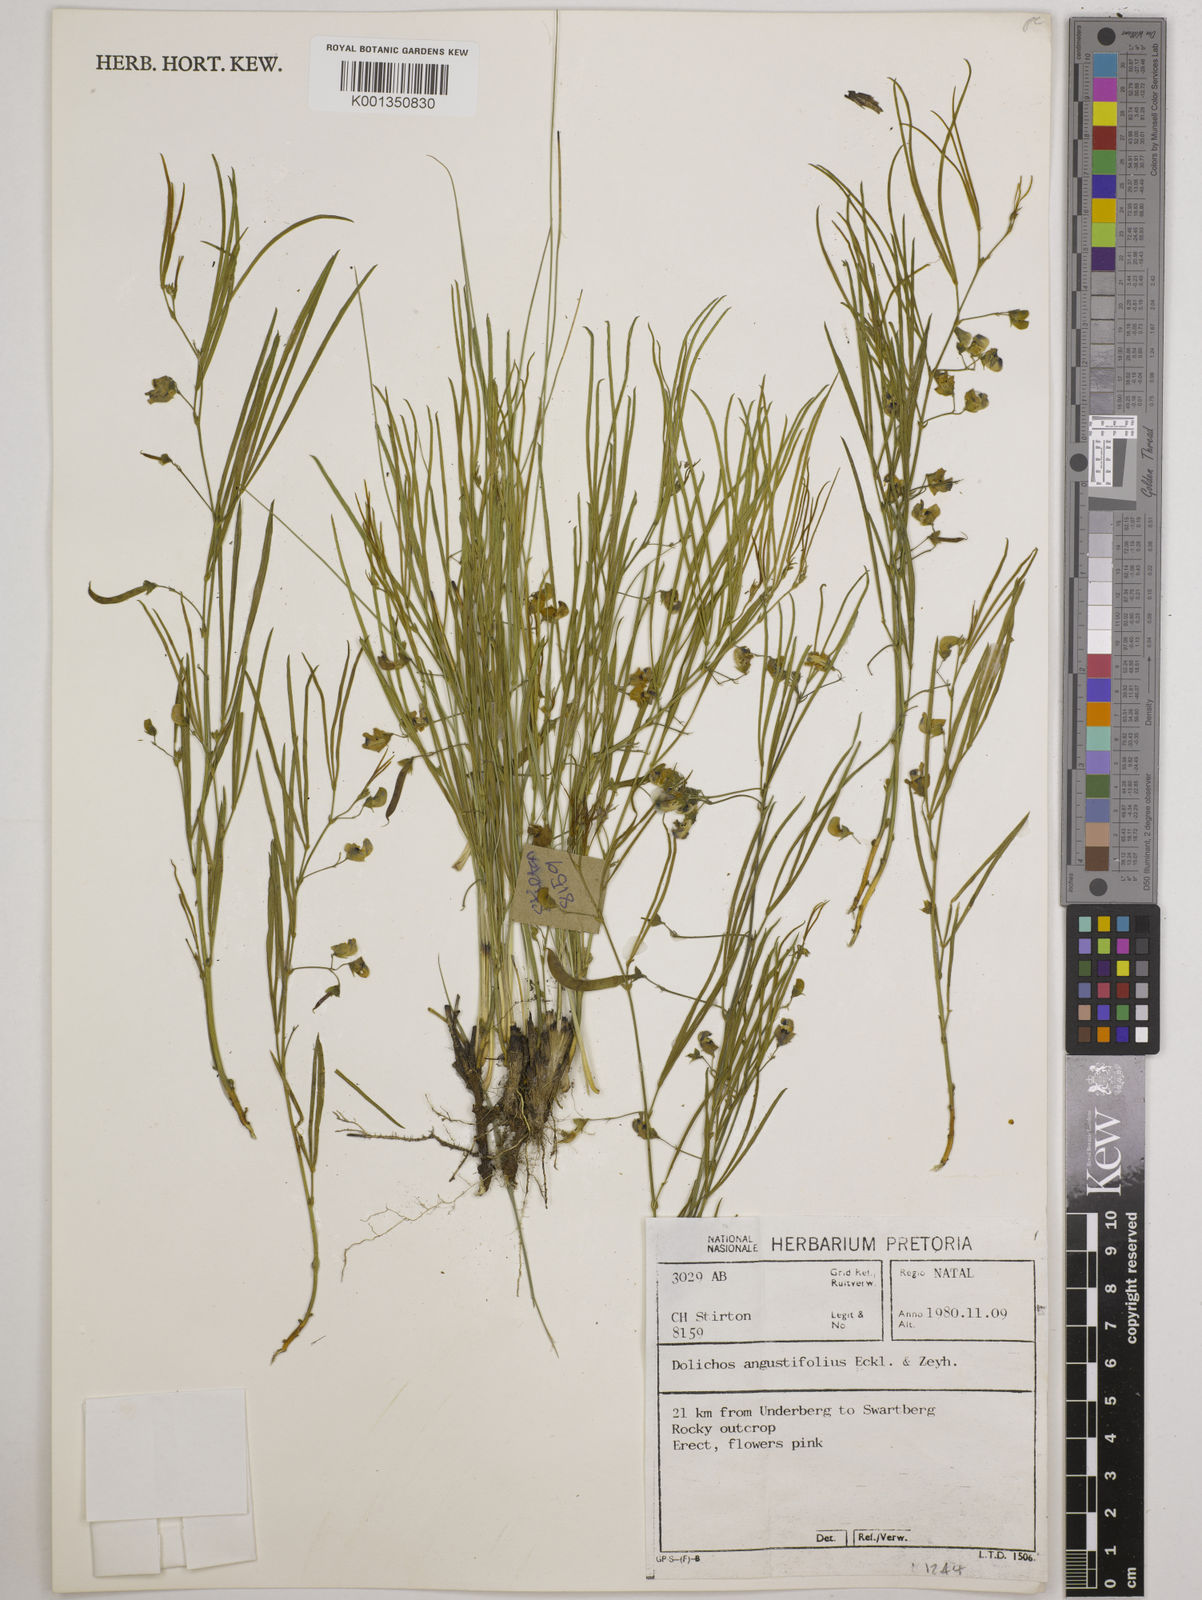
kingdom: Plantae
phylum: Tracheophyta
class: Magnoliopsida
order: Fabales
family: Fabaceae
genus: Dolichos
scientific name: Dolichos
